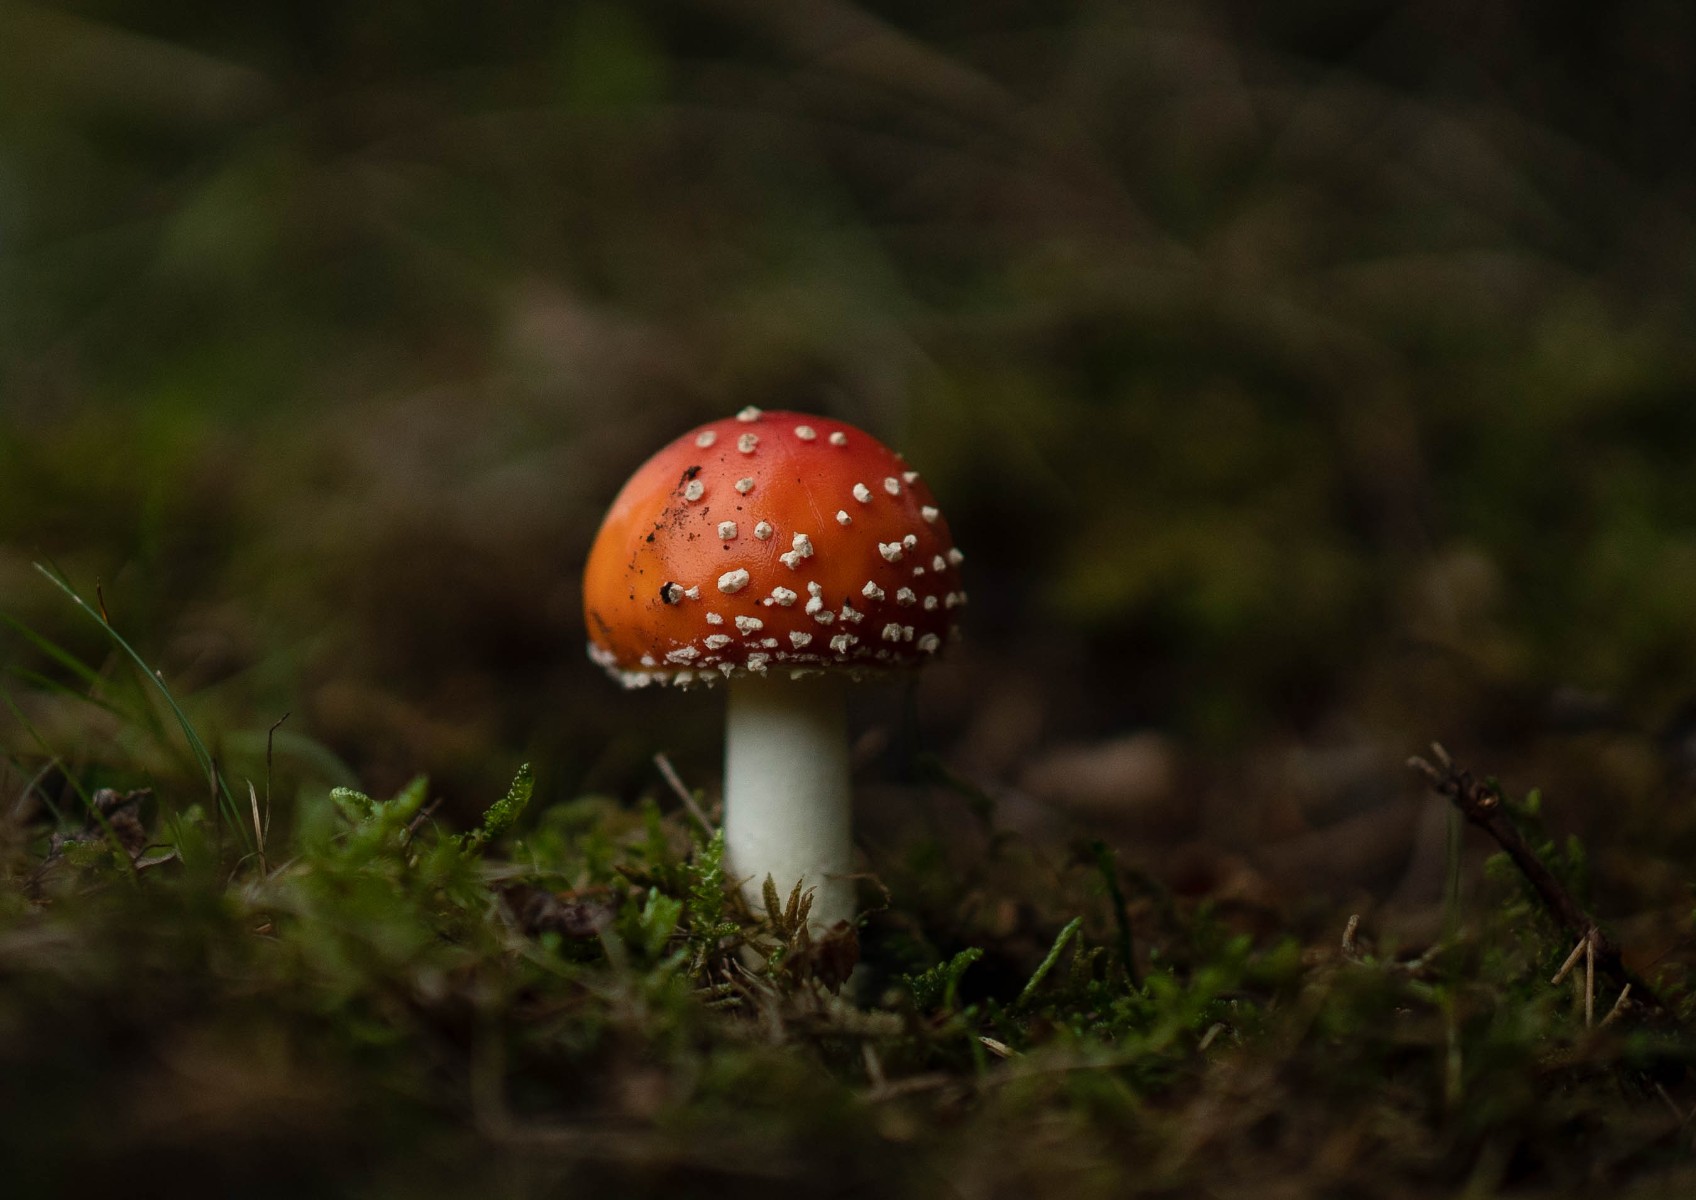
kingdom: Fungi
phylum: Basidiomycota
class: Agaricomycetes
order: Agaricales
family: Amanitaceae
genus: Amanita
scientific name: Amanita muscaria
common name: rød fluesvamp
